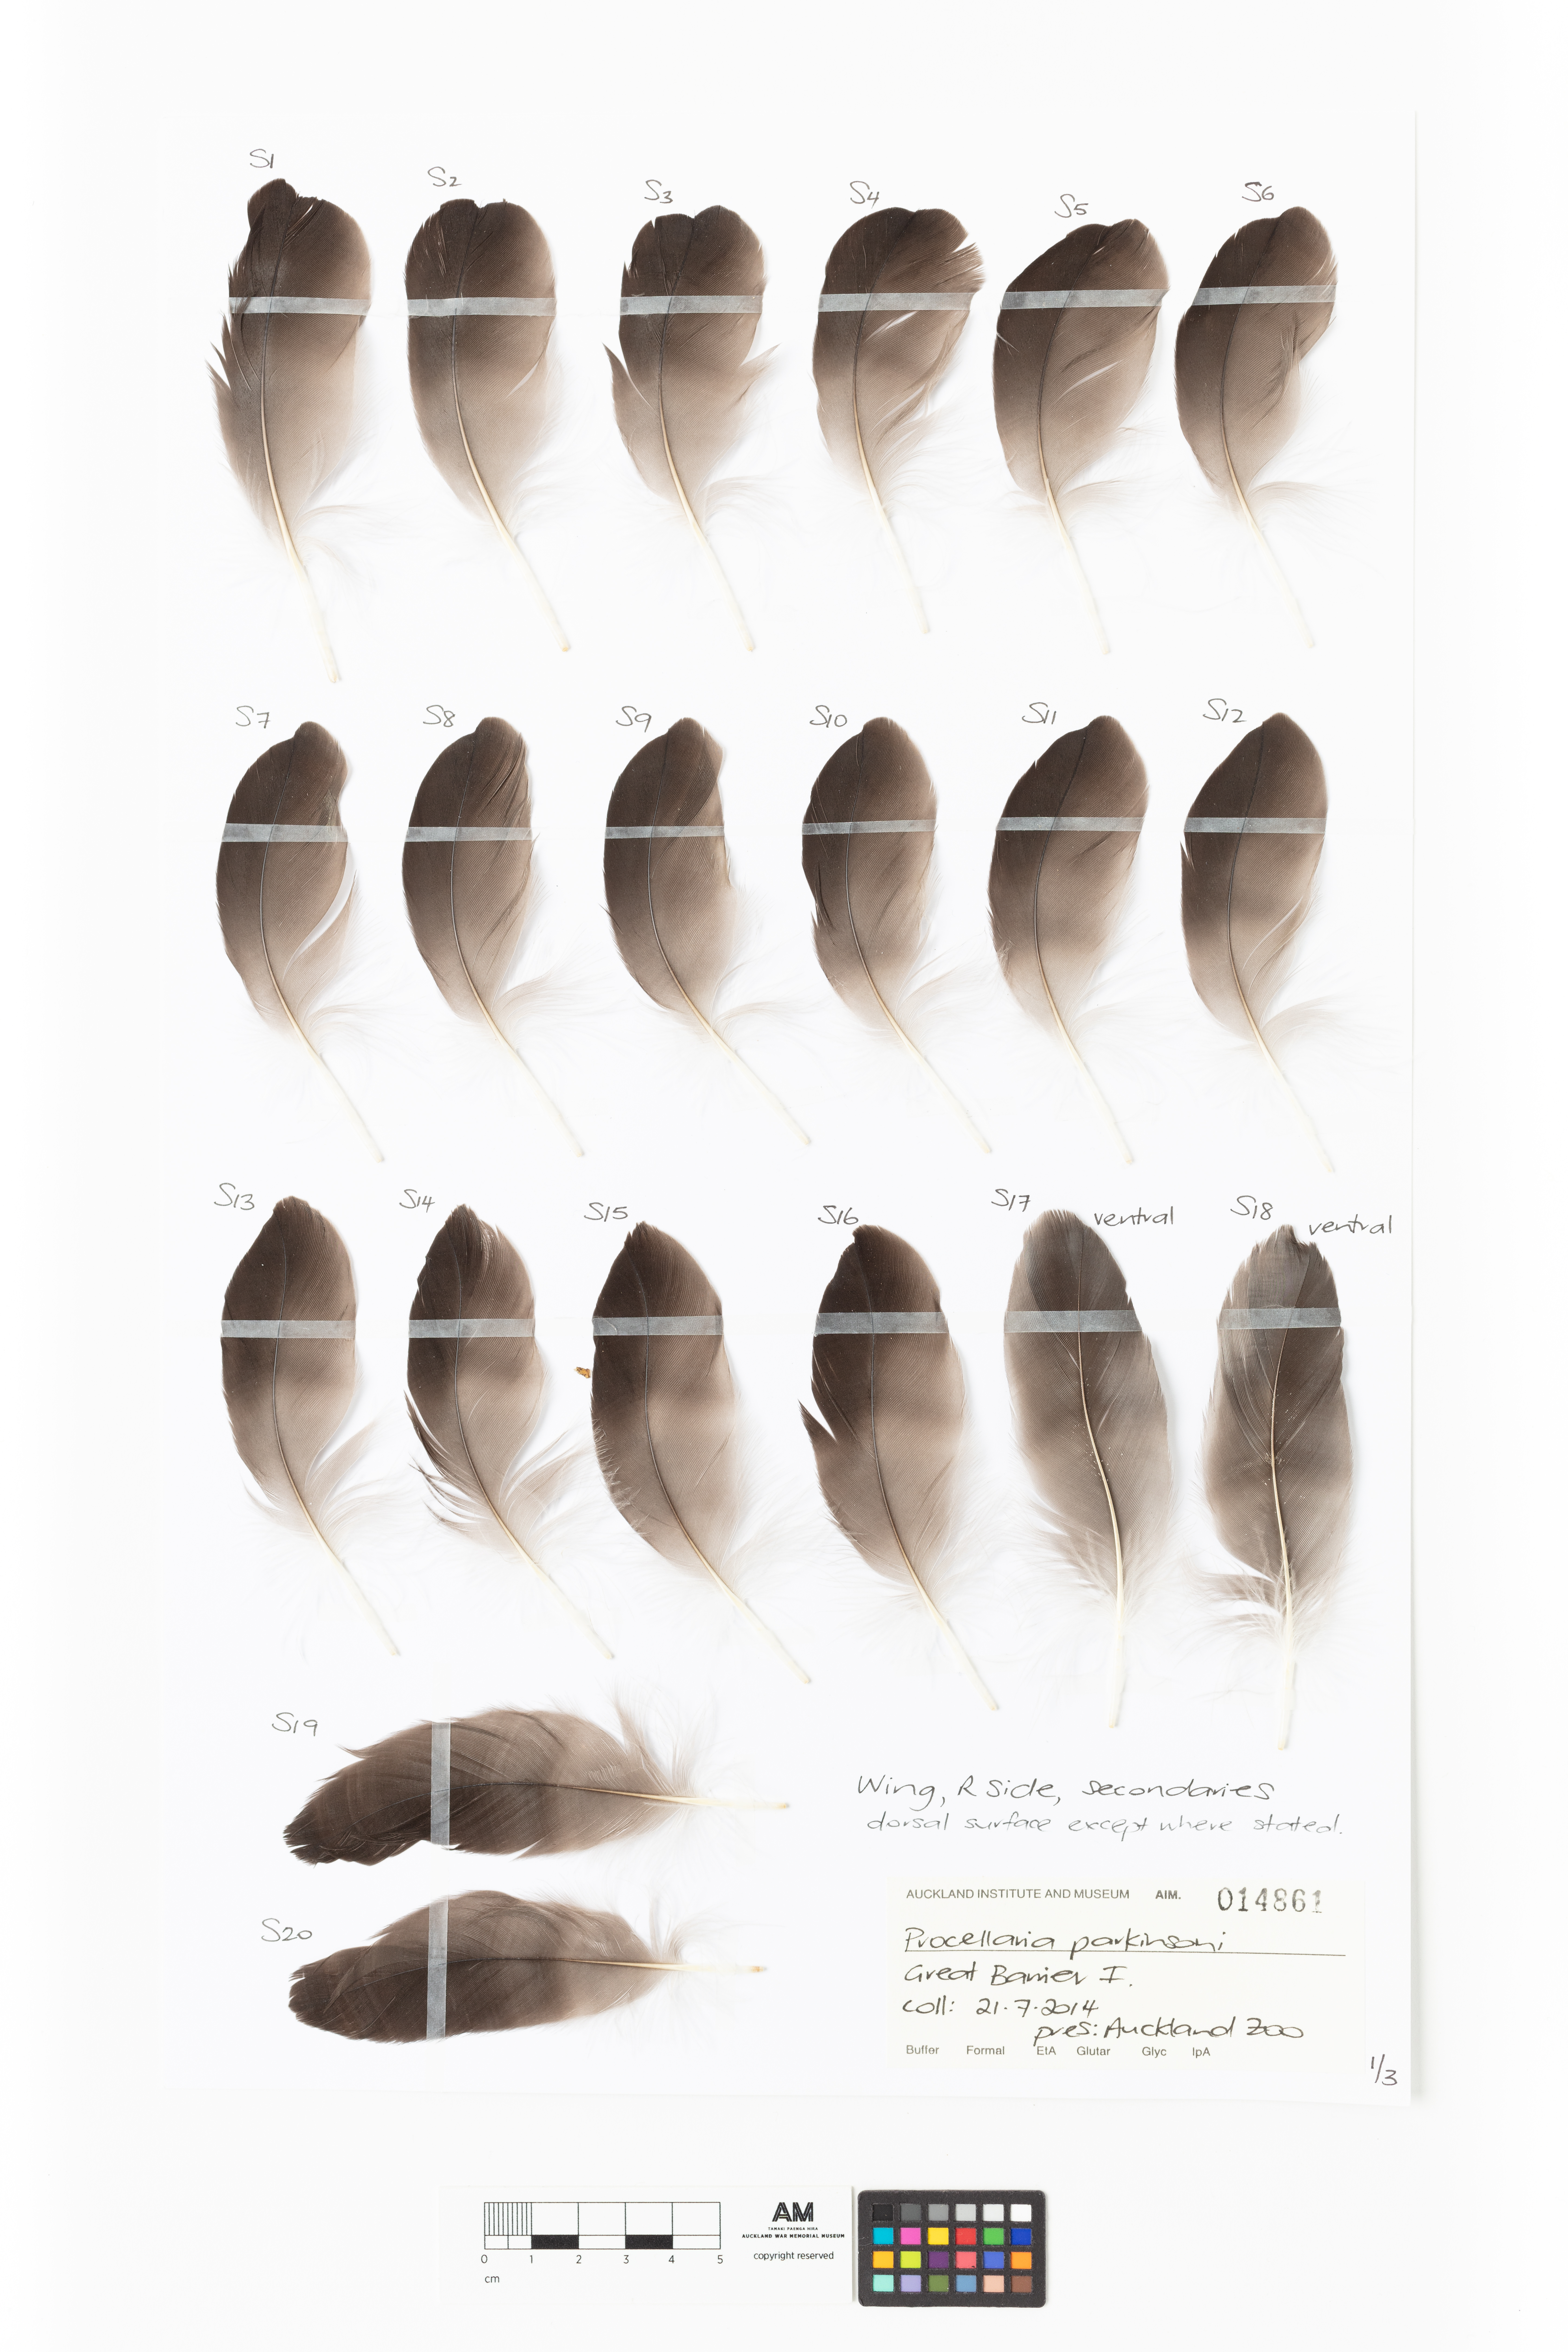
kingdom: Animalia
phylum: Chordata
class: Aves
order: Procellariiformes
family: Procellariidae
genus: Procellaria
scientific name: Procellaria parkinsoni
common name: Black petrel
